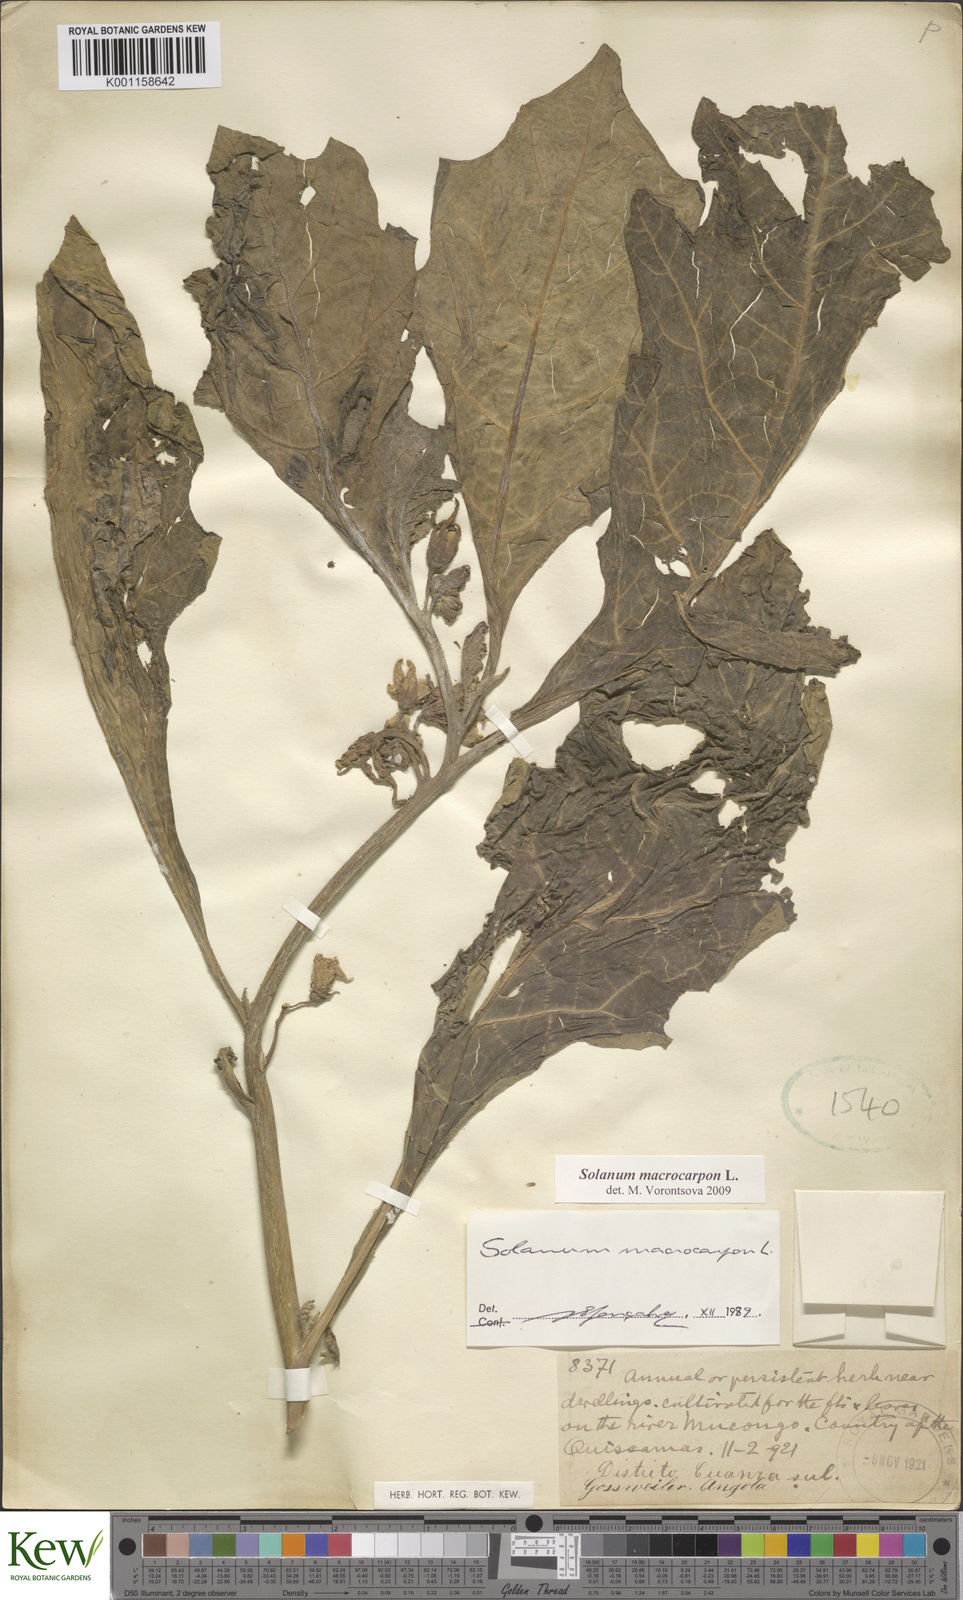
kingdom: Plantae
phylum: Tracheophyta
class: Magnoliopsida
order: Solanales
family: Solanaceae
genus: Solanum
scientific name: Solanum macrocarpon
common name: African eggplant
